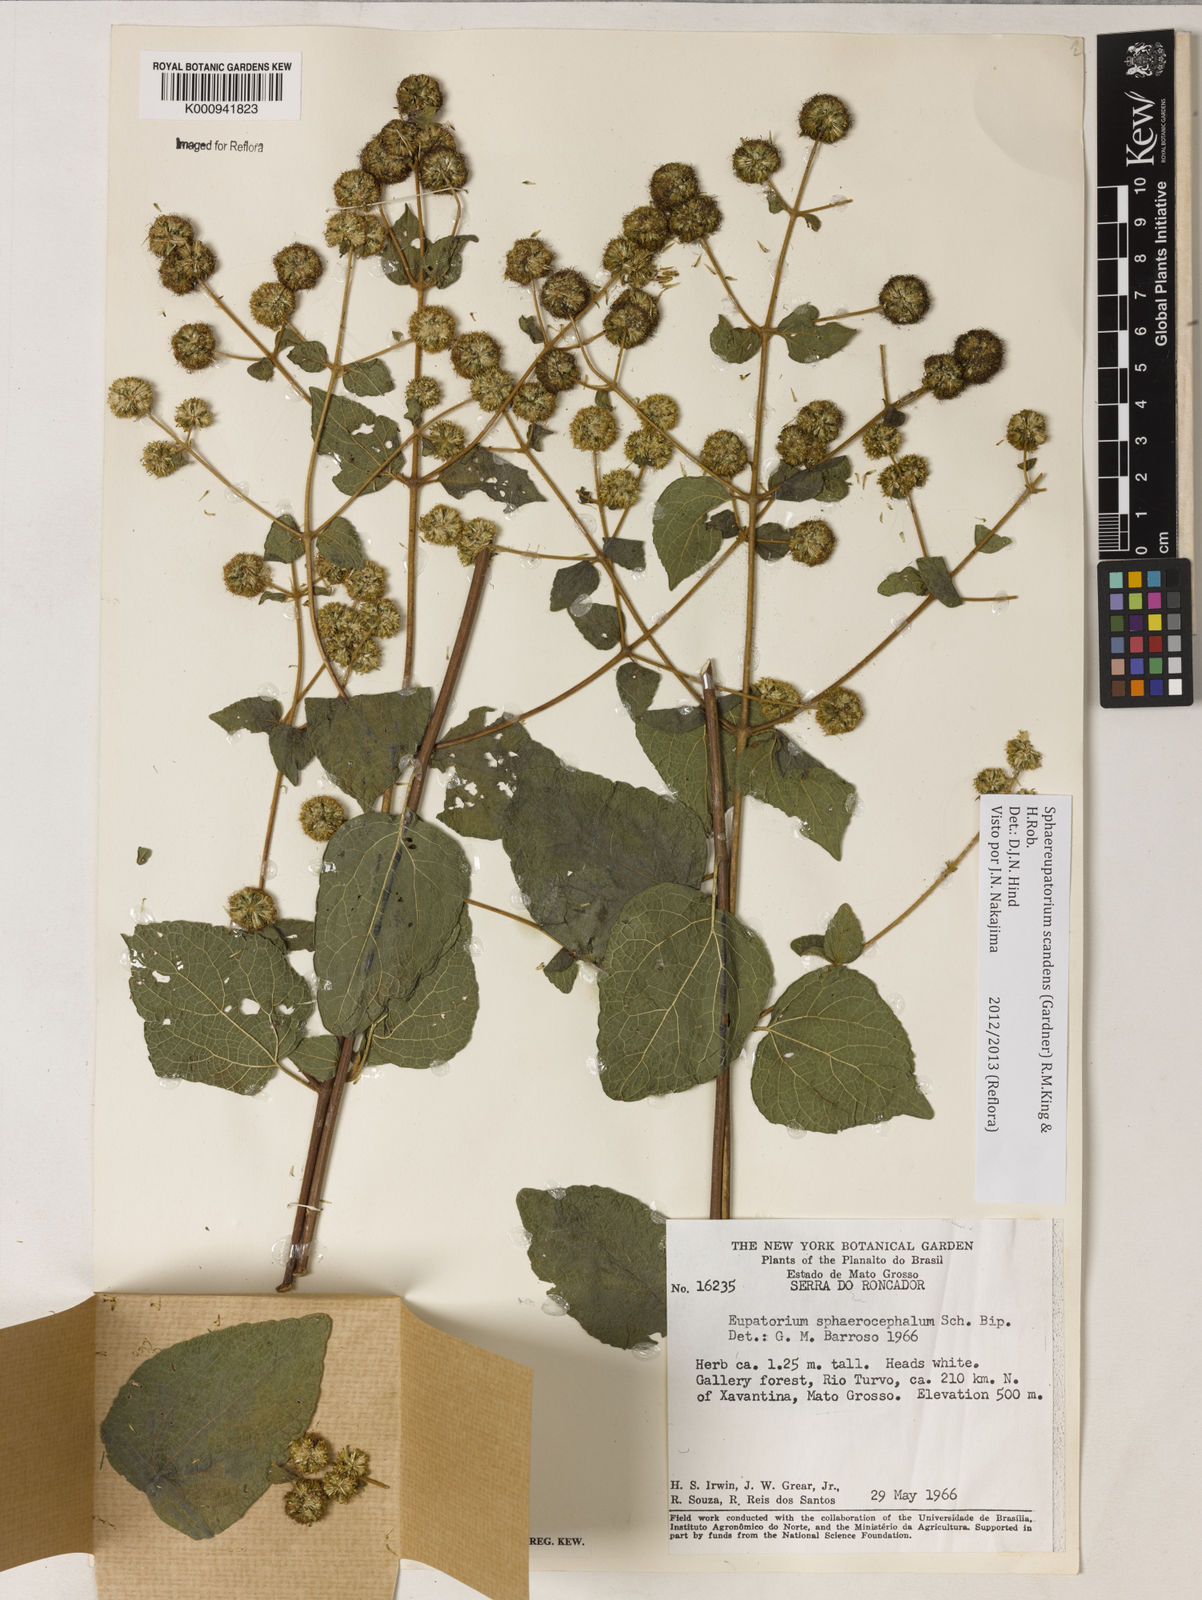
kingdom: Plantae
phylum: Tracheophyta
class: Magnoliopsida
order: Asterales
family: Asteraceae
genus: Sphaereupatorium
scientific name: Sphaereupatorium scandens
